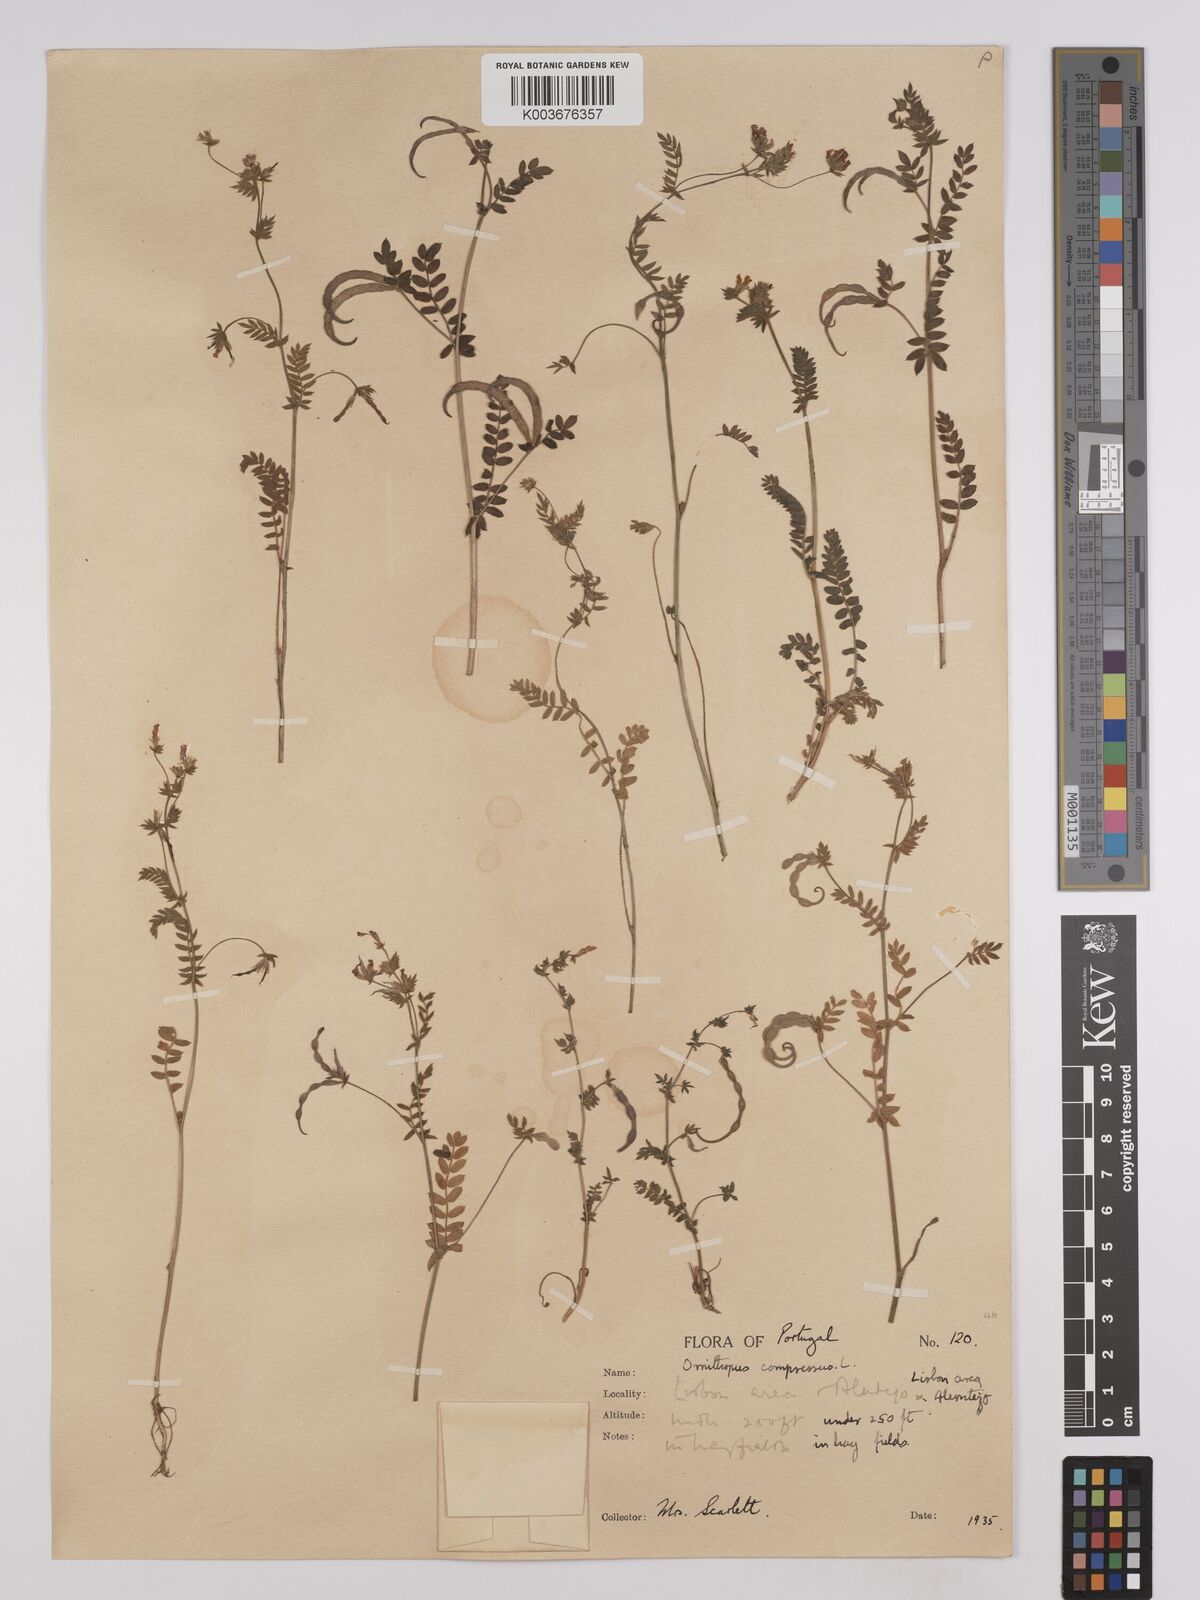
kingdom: Plantae
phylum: Tracheophyta
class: Magnoliopsida
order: Fabales
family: Fabaceae
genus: Ornithopus
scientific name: Ornithopus compressus
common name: Yellow serradella
